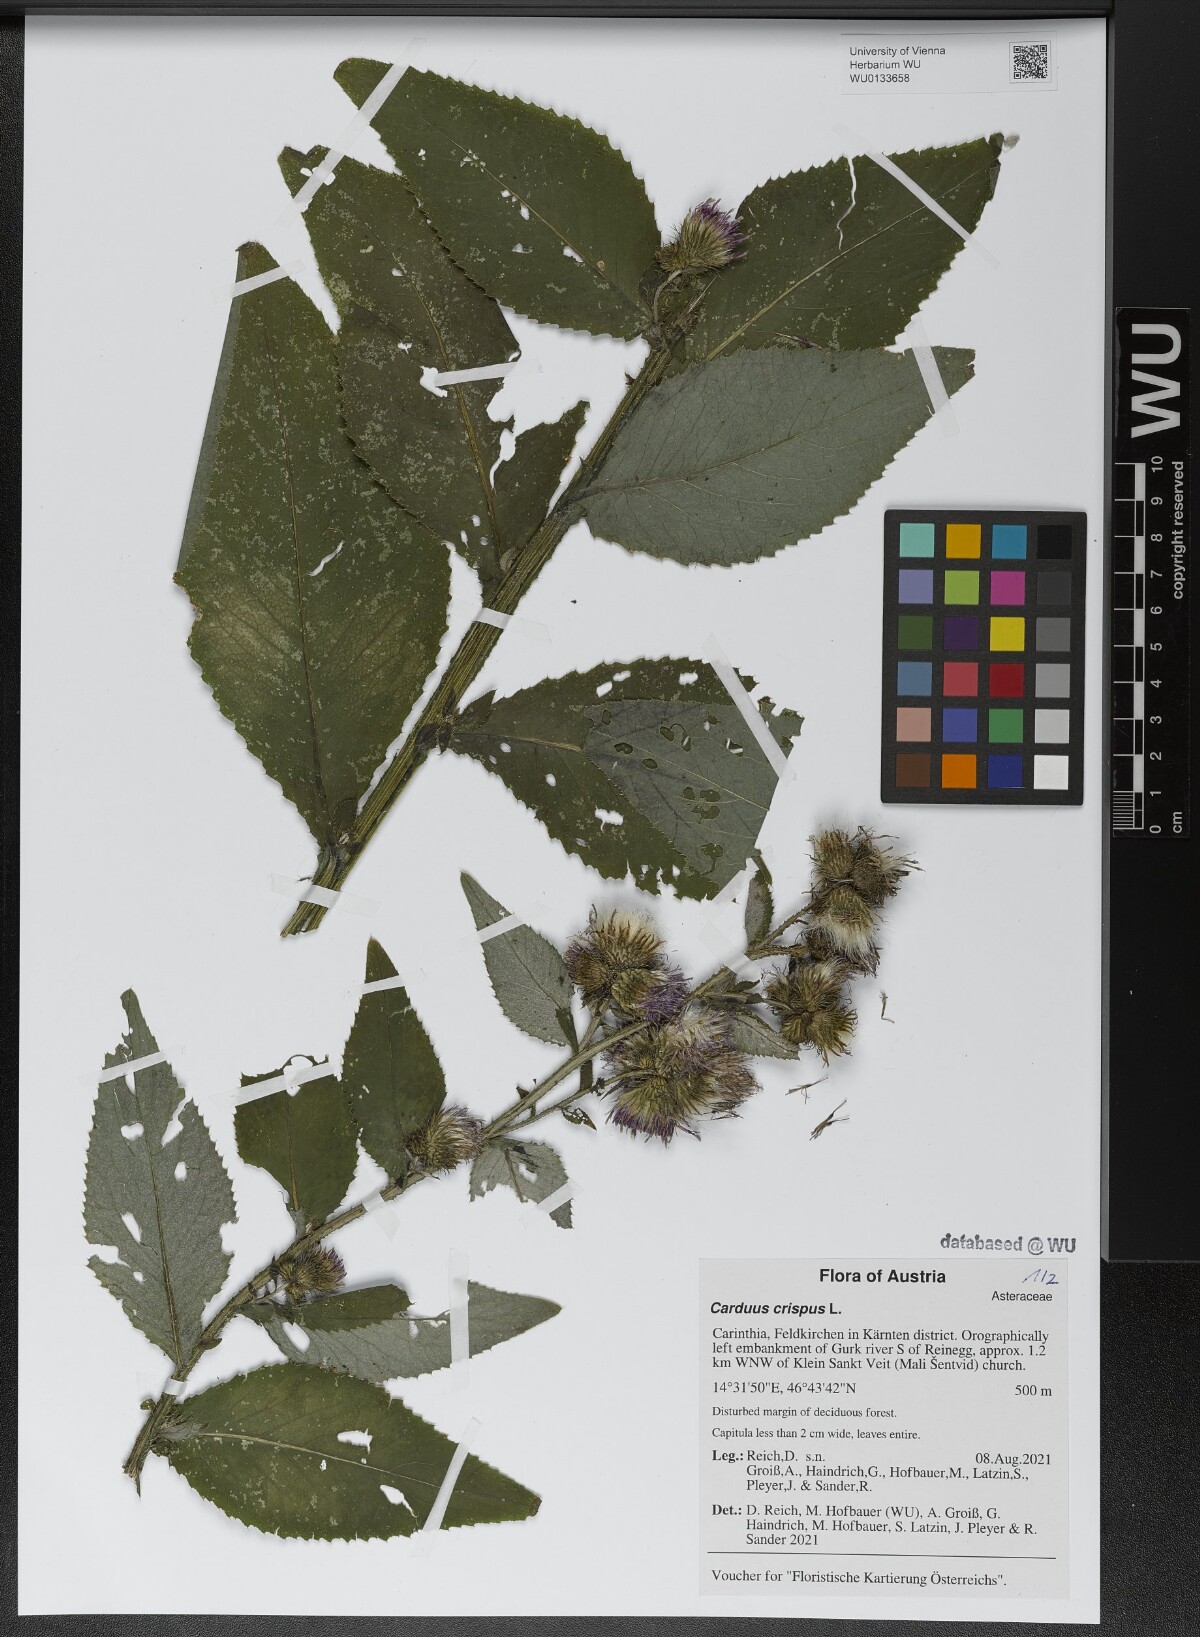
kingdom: Plantae
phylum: Tracheophyta
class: Magnoliopsida
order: Asterales
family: Asteraceae
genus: Carduus
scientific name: Carduus crispus
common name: Welted thistle
